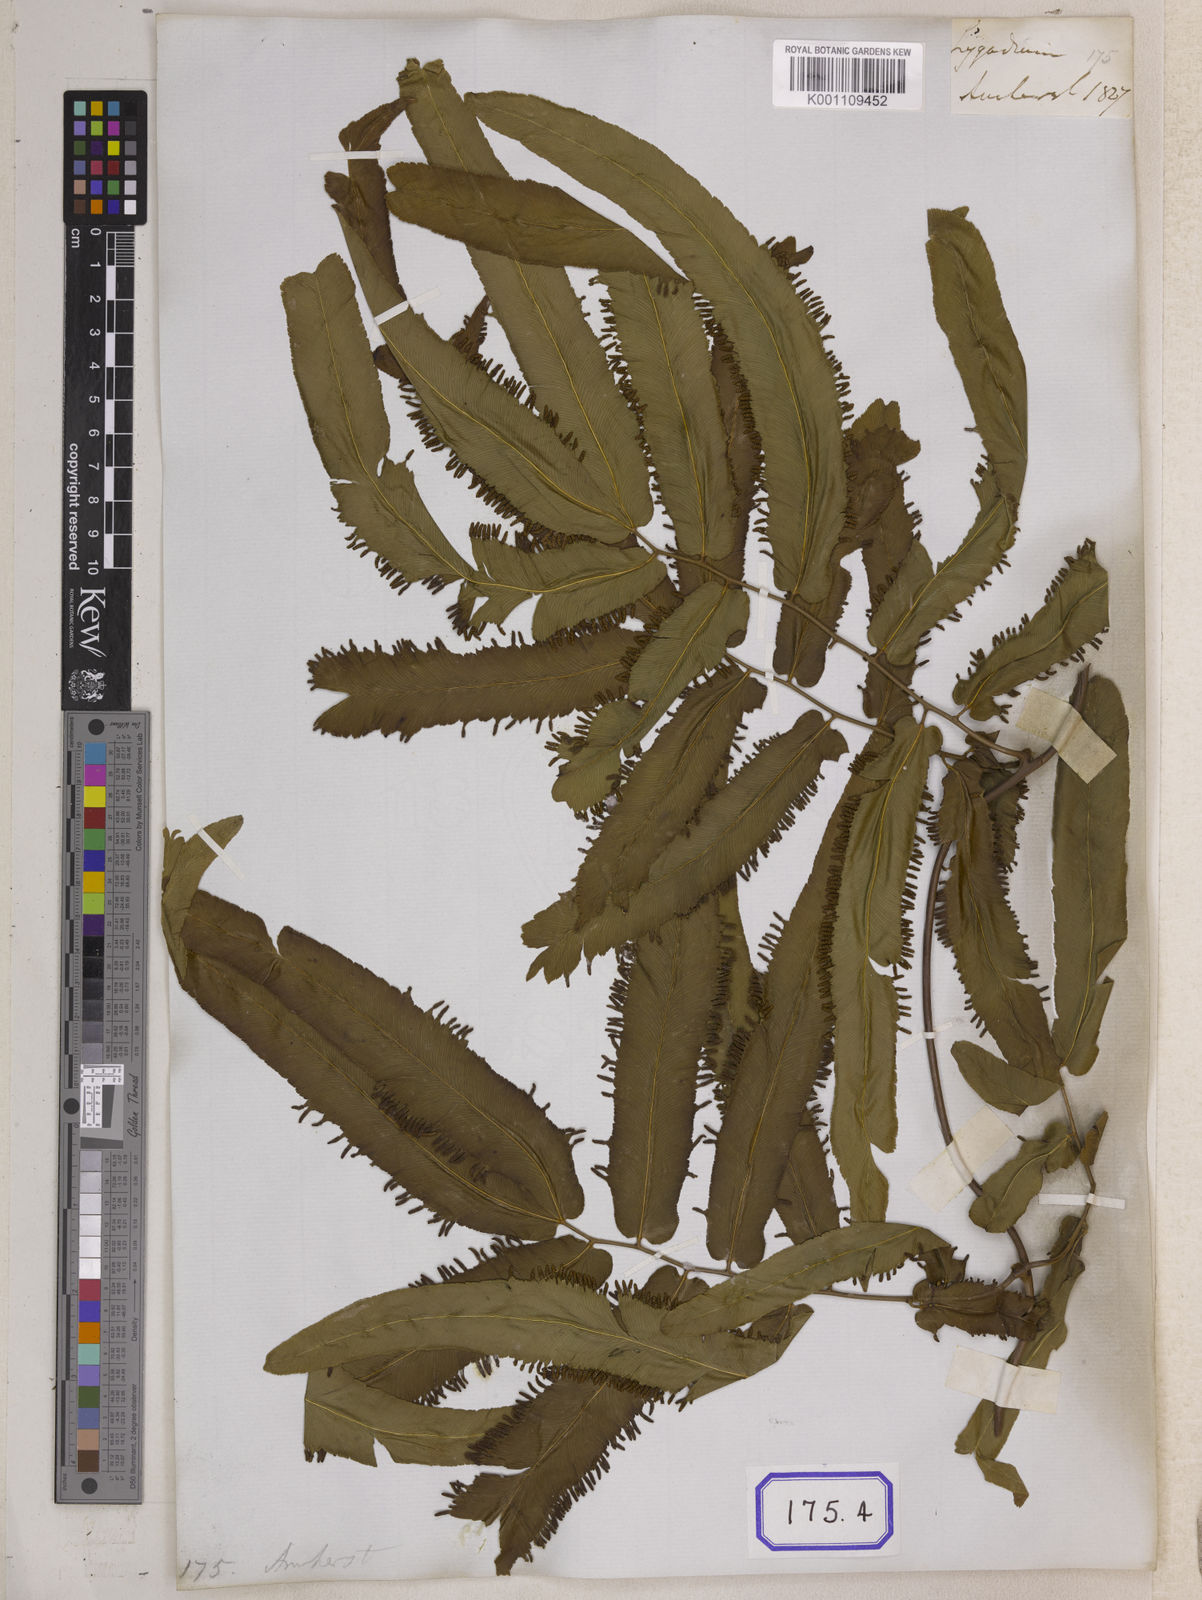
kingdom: Plantae
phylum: Tracheophyta
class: Polypodiopsida
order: Schizaeales
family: Lygodiaceae
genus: Lygodium
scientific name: Lygodium flexuosum
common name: Maidenhair creeper
